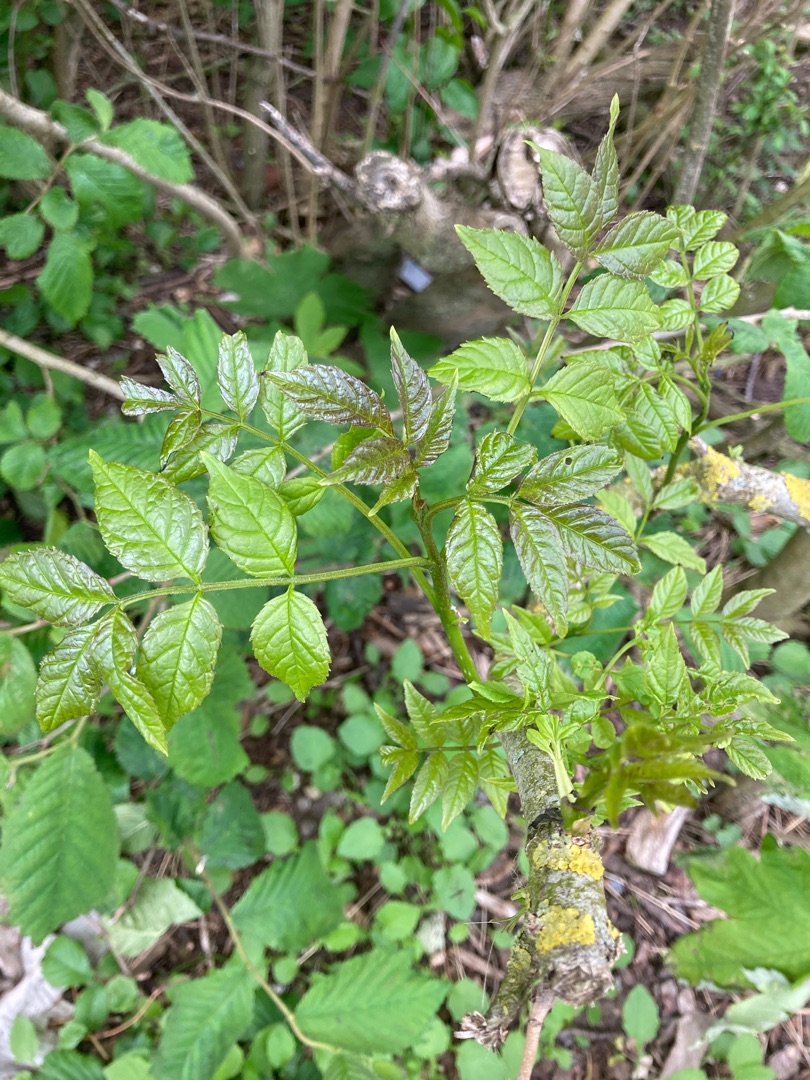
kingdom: Plantae
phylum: Tracheophyta
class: Magnoliopsida
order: Lamiales
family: Oleaceae
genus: Fraxinus
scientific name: Fraxinus excelsior
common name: Ask
